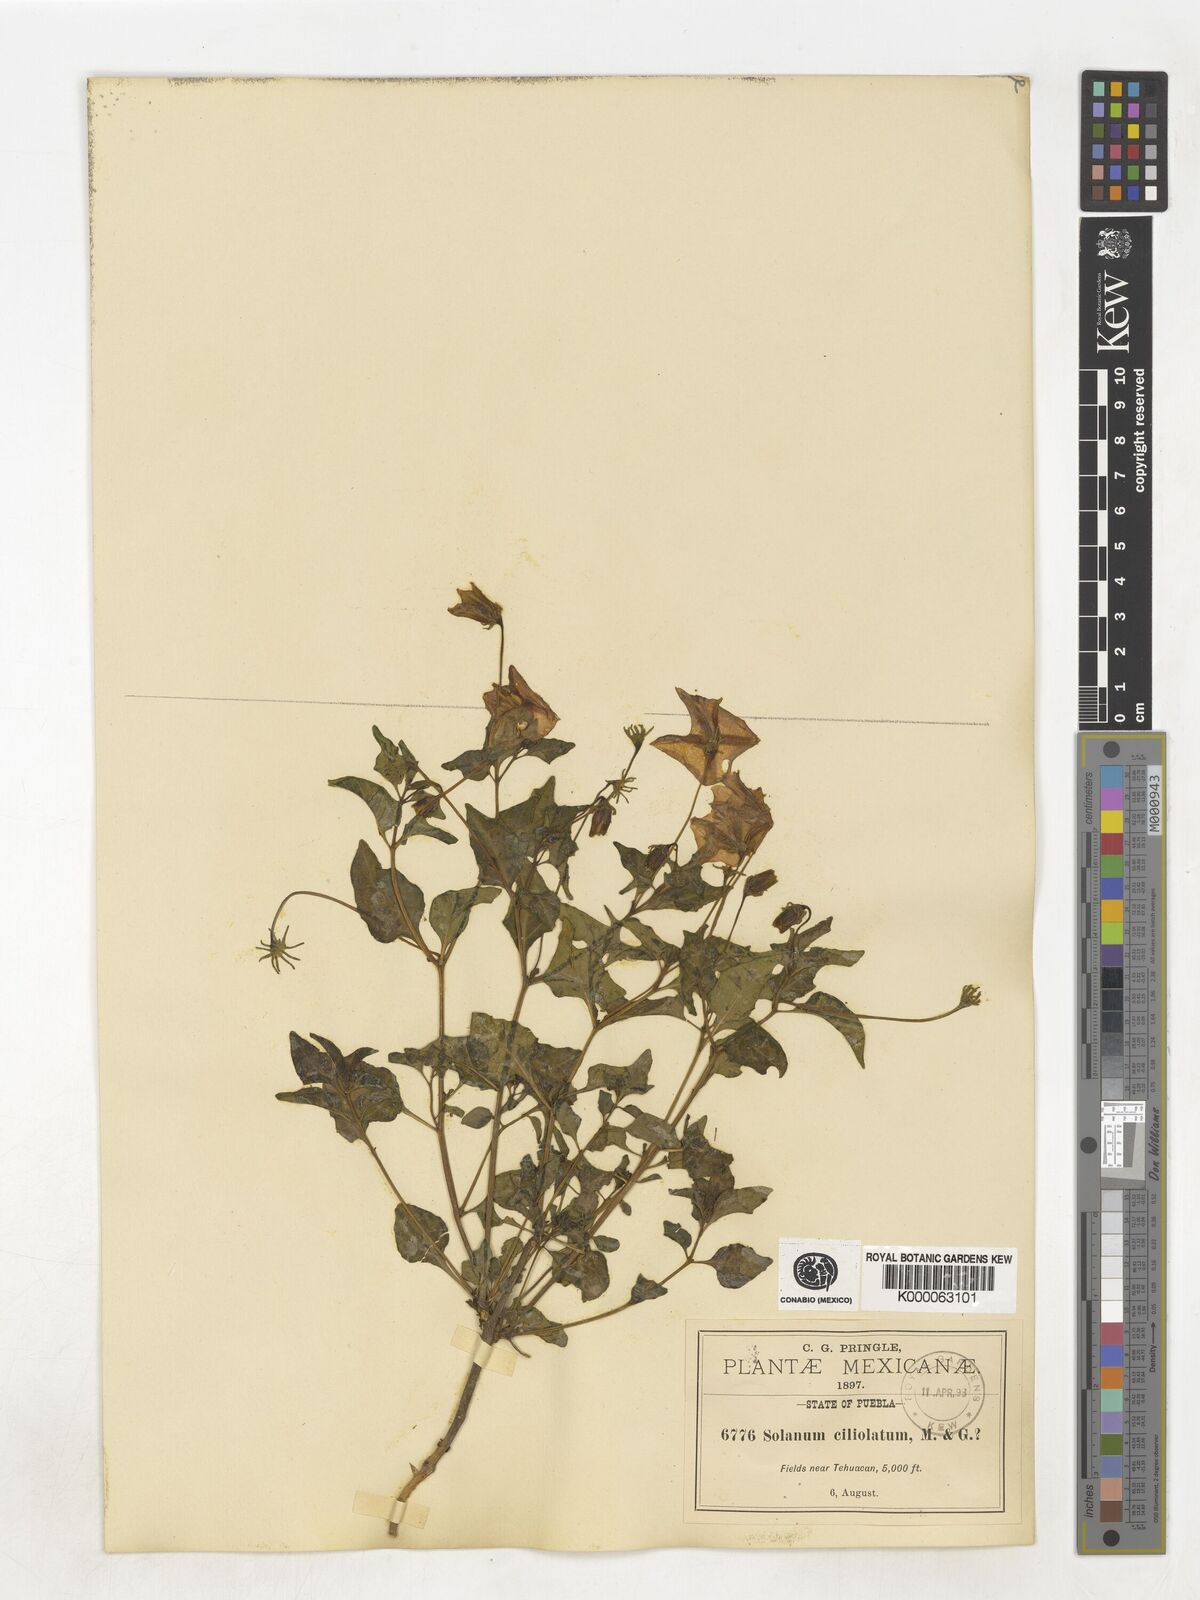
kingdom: Plantae
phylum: Tracheophyta
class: Magnoliopsida
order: Solanales
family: Solanaceae
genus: Lycianthes
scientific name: Lycianthes ciliolata
